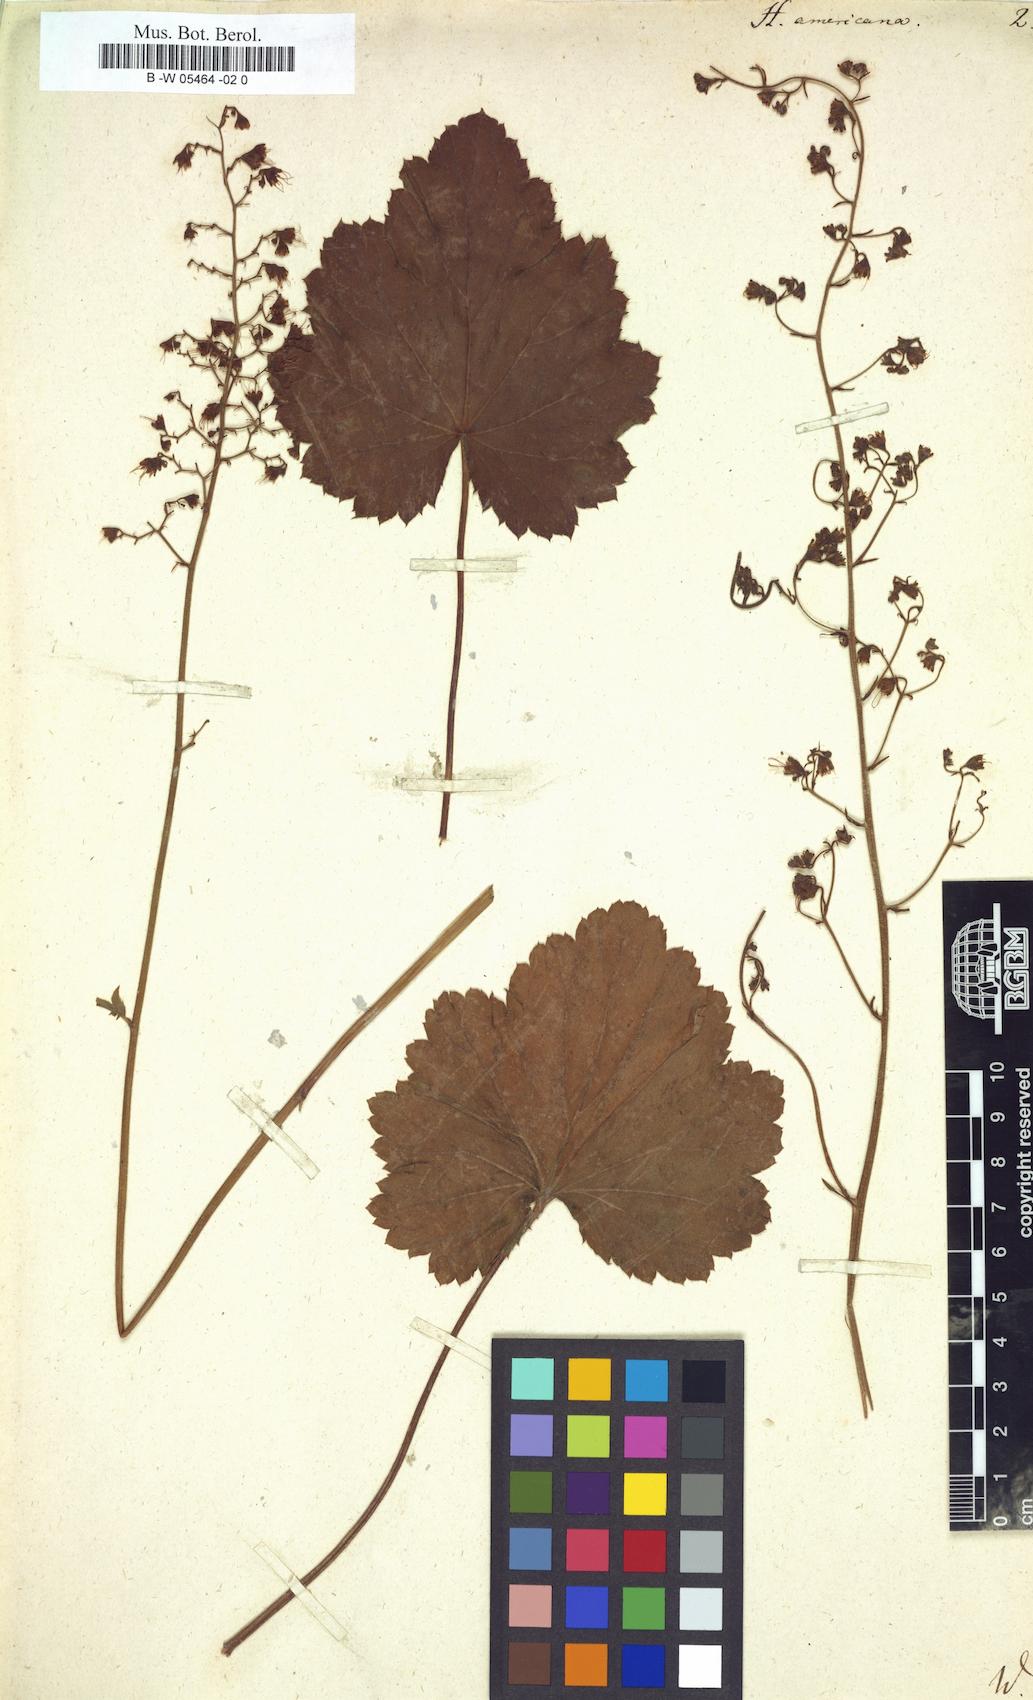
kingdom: Plantae
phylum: Tracheophyta
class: Magnoliopsida
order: Saxifragales
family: Saxifragaceae
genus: Heuchera
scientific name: Heuchera americana
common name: Alumroot
